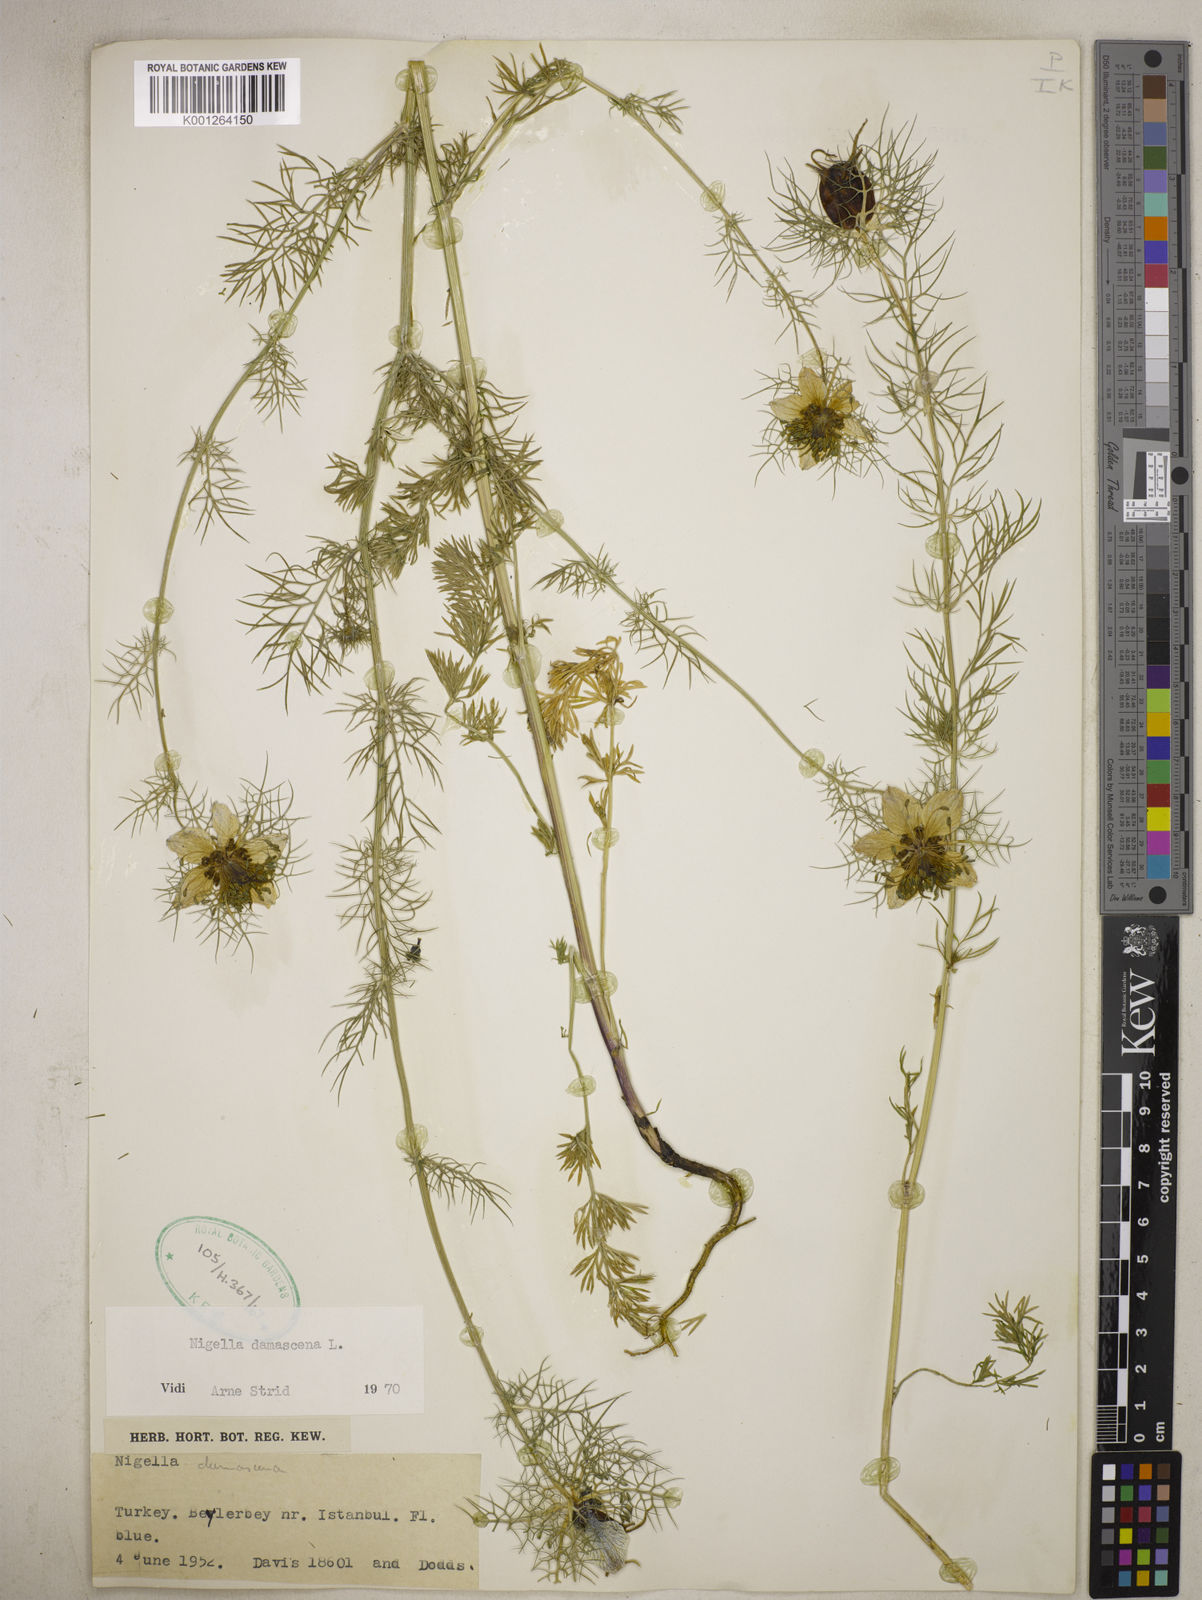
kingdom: Plantae
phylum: Tracheophyta
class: Magnoliopsida
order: Ranunculales
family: Ranunculaceae
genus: Nigella
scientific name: Nigella damascena
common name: Love-in-a-mist
